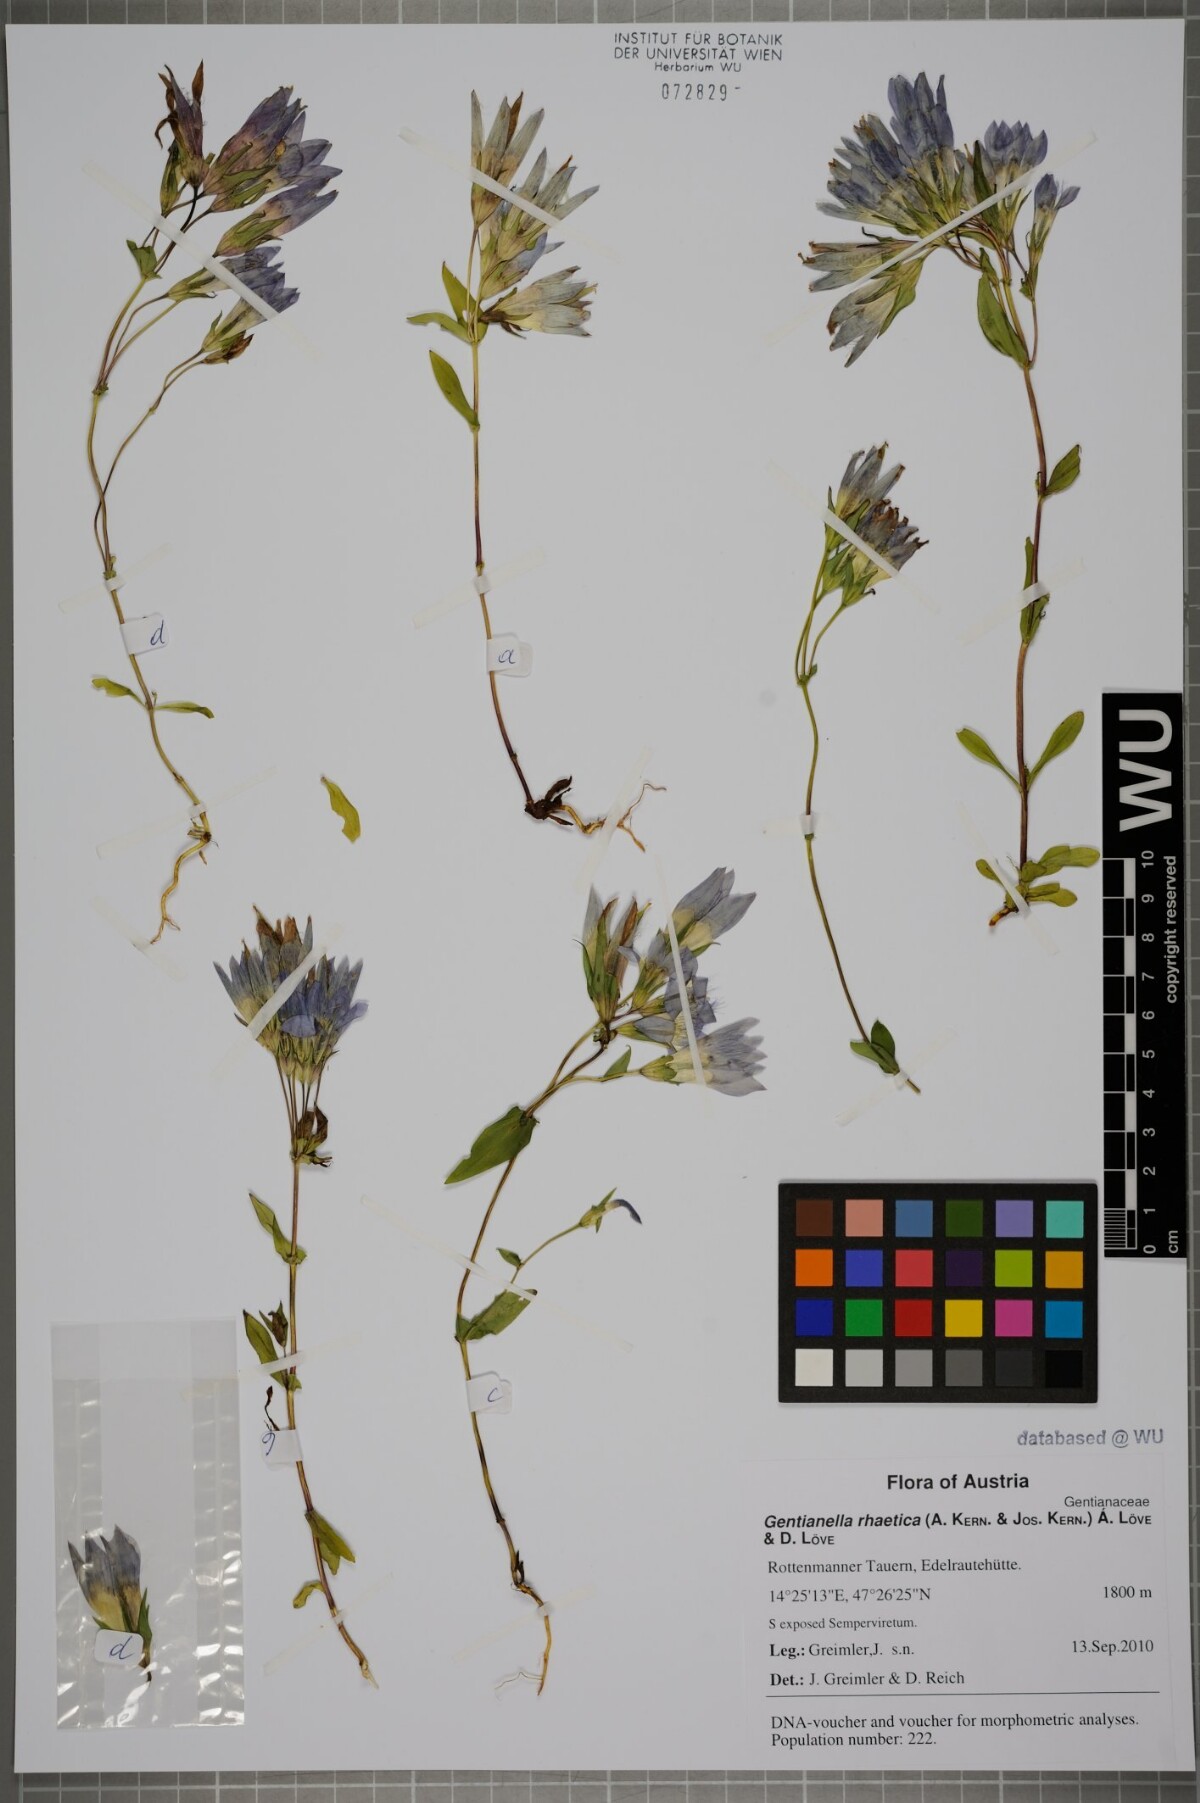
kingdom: Plantae
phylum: Tracheophyta
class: Magnoliopsida
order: Gentianales
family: Gentianaceae
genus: Gentianella
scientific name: Gentianella rhaetica
